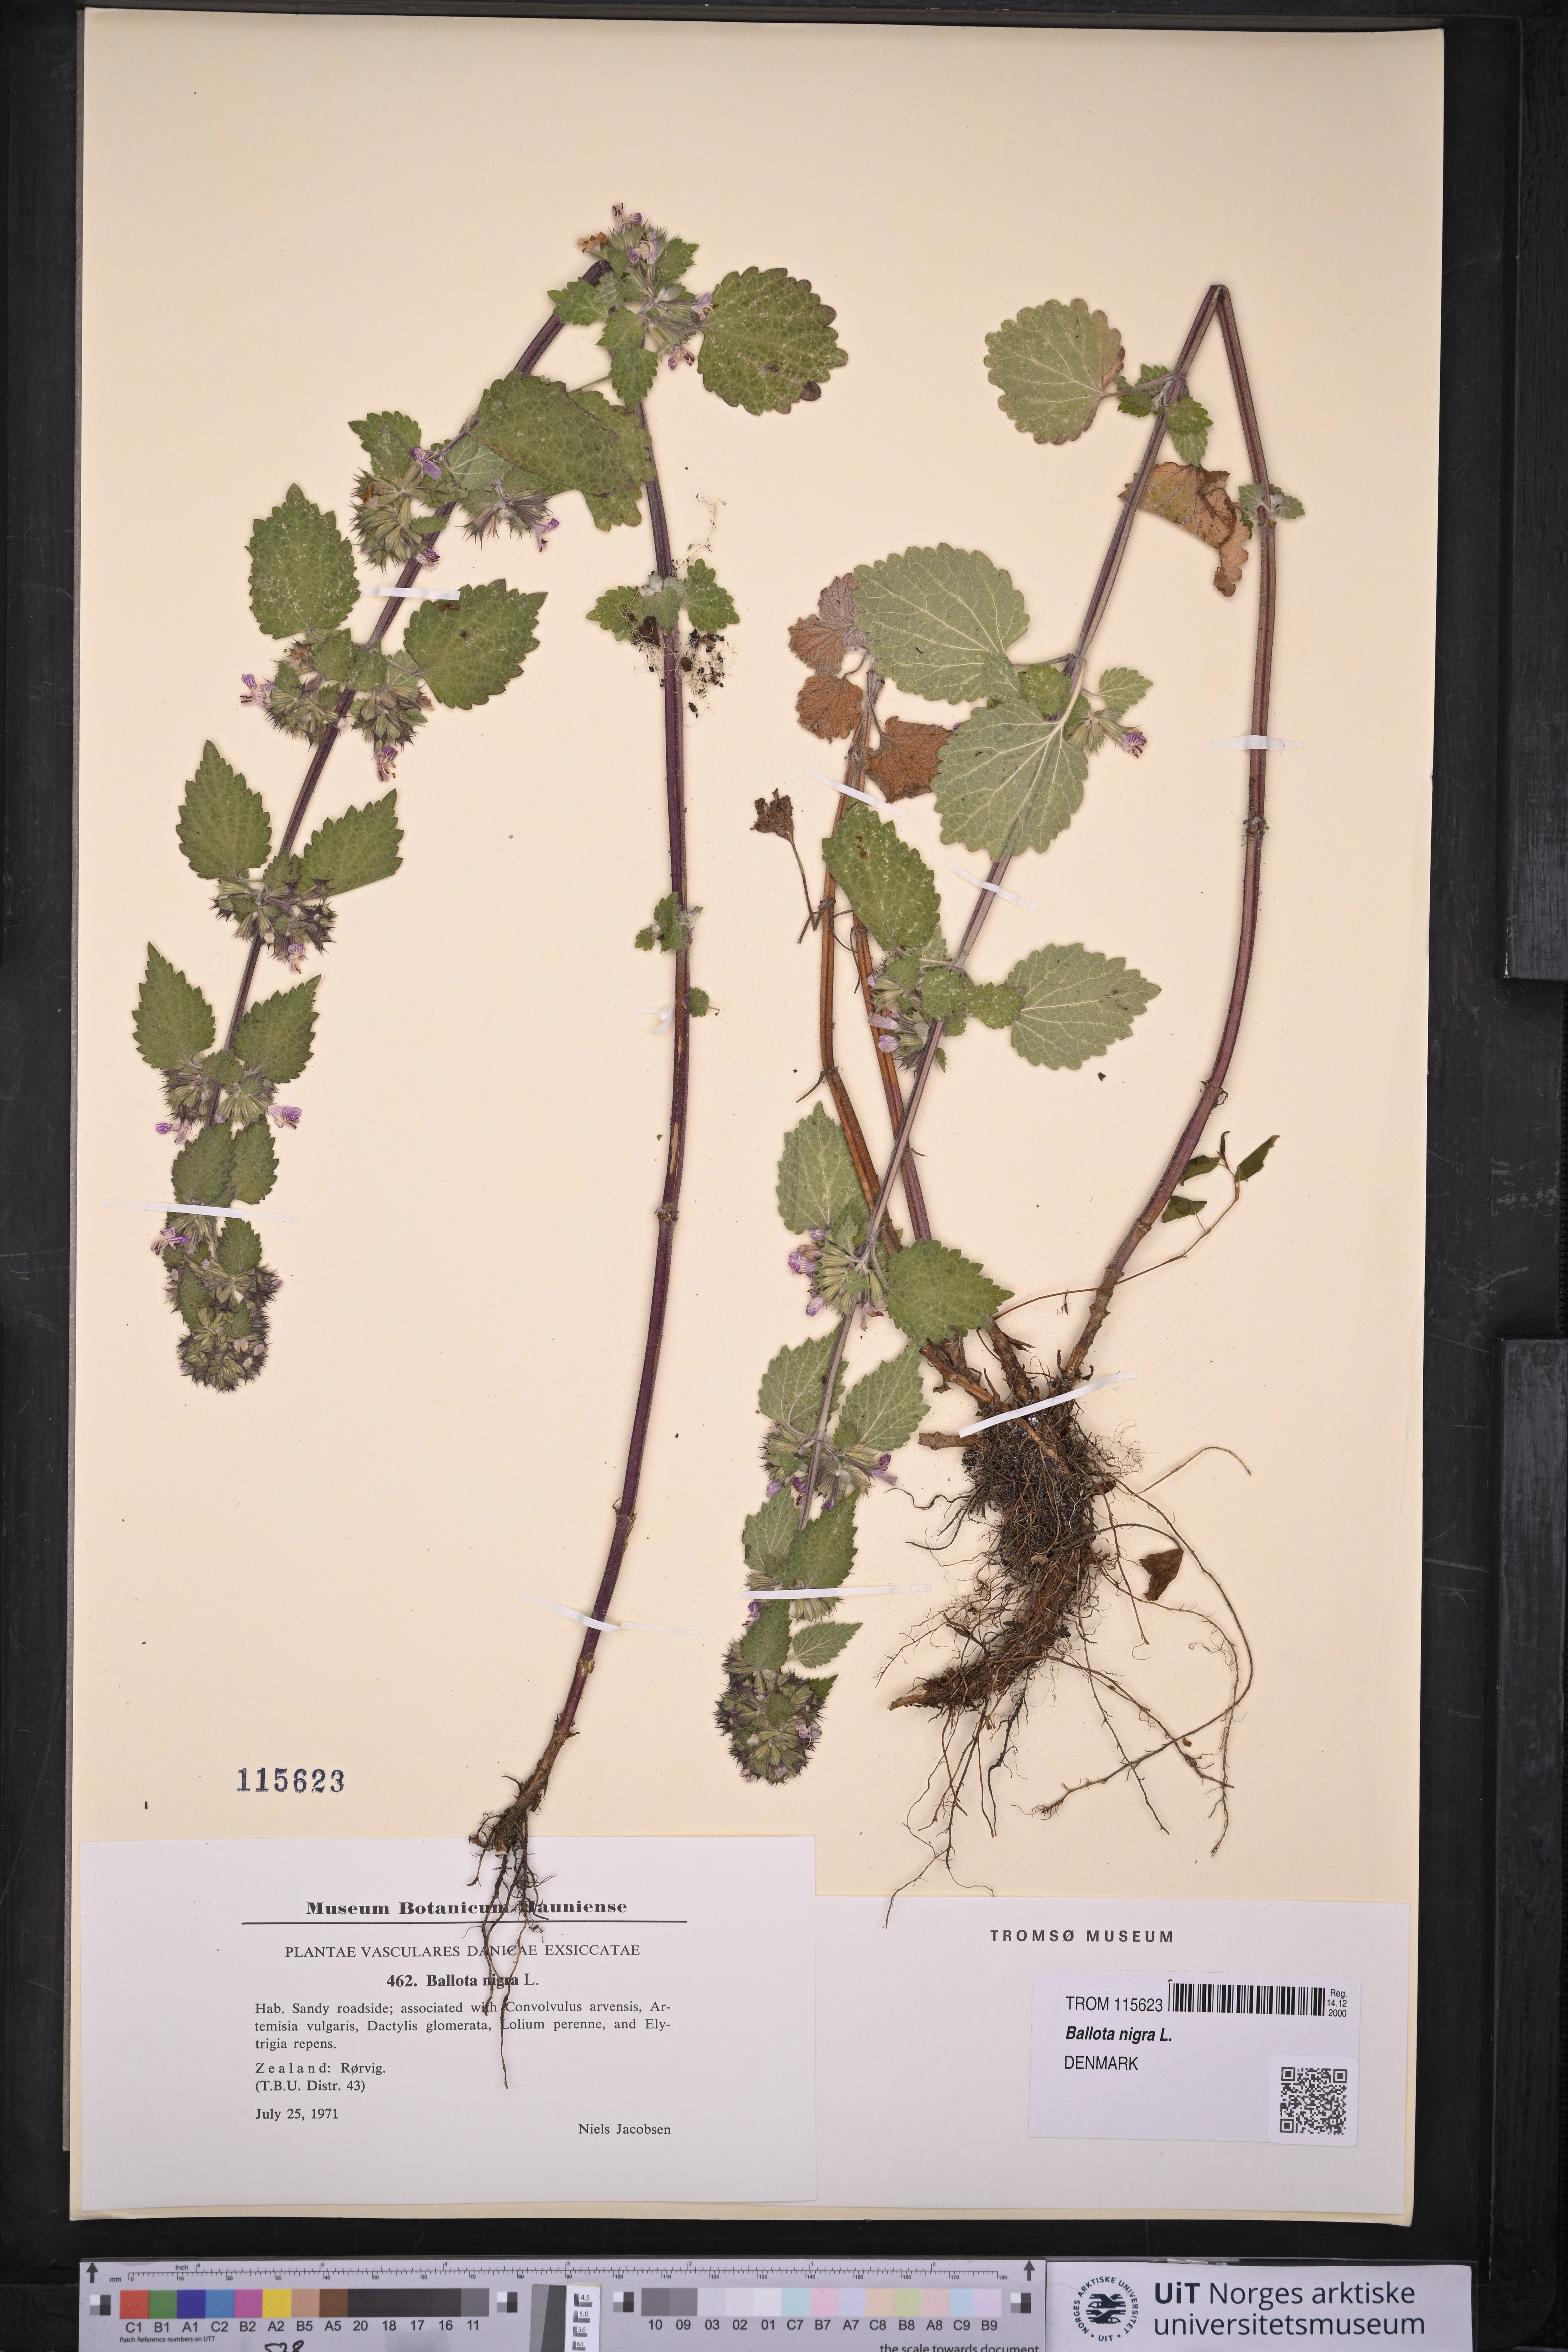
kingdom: Plantae
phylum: Tracheophyta
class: Magnoliopsida
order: Lamiales
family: Lamiaceae
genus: Ballota
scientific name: Ballota nigra
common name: Black horehound
